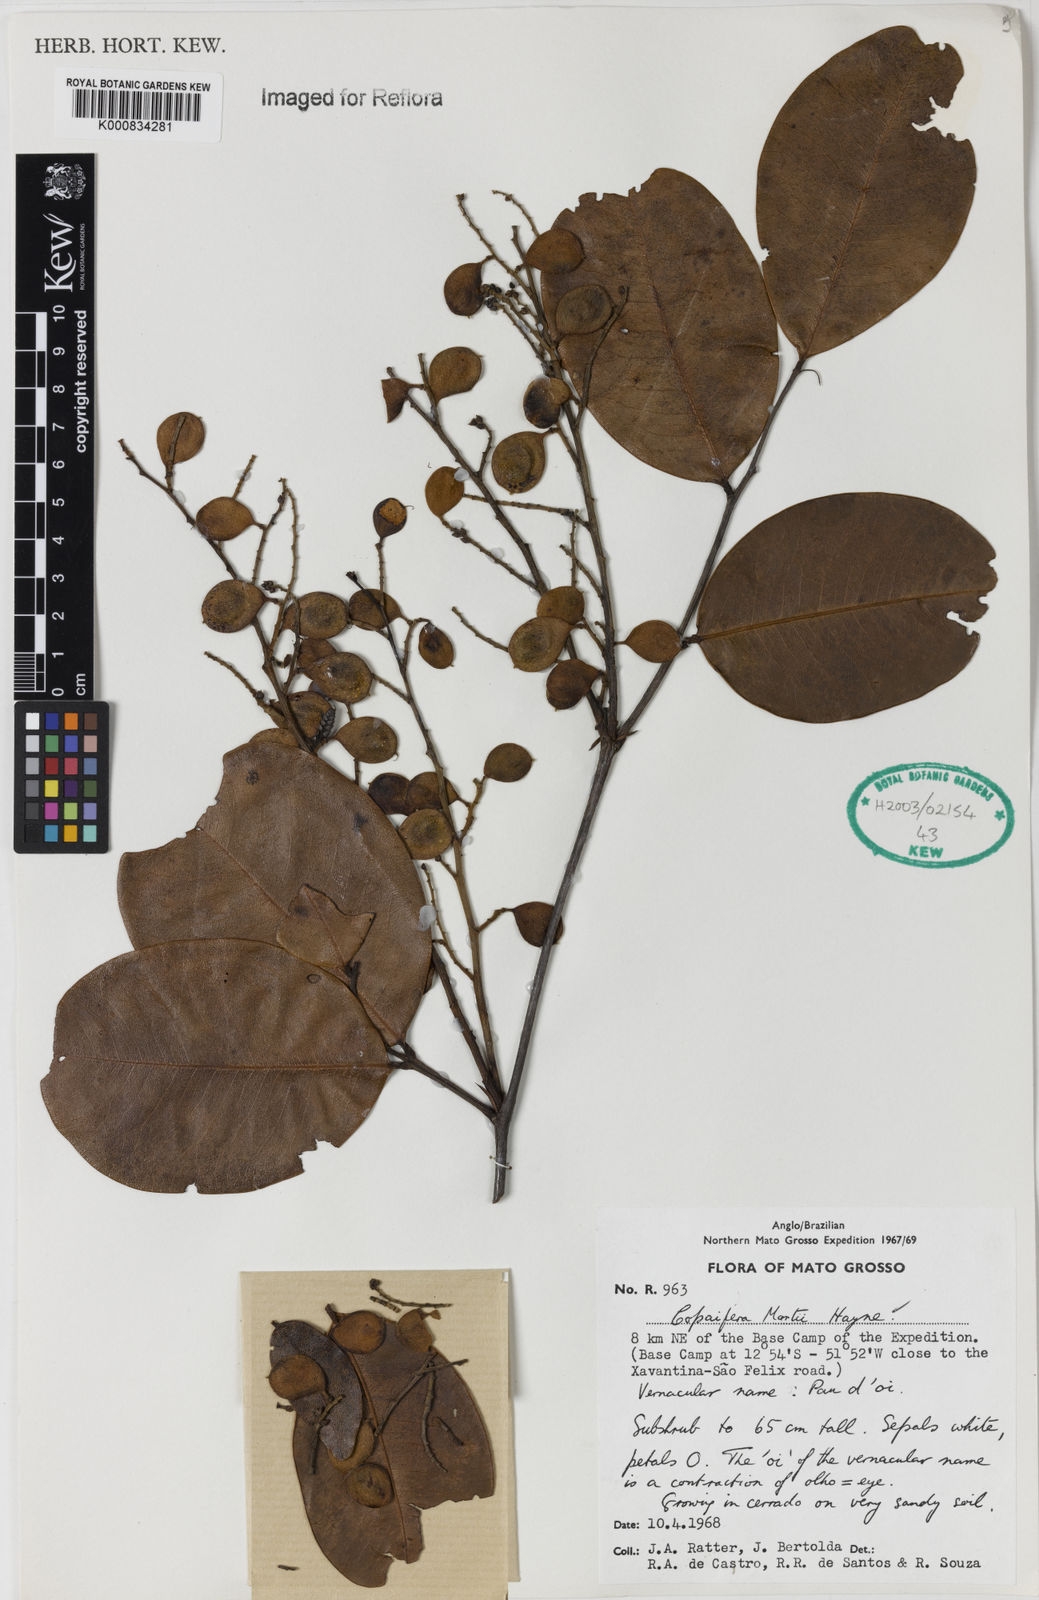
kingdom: Plantae
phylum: Tracheophyta
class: Magnoliopsida
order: Fabales
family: Fabaceae
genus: Copaifera
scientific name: Copaifera martii
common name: Copaiba
